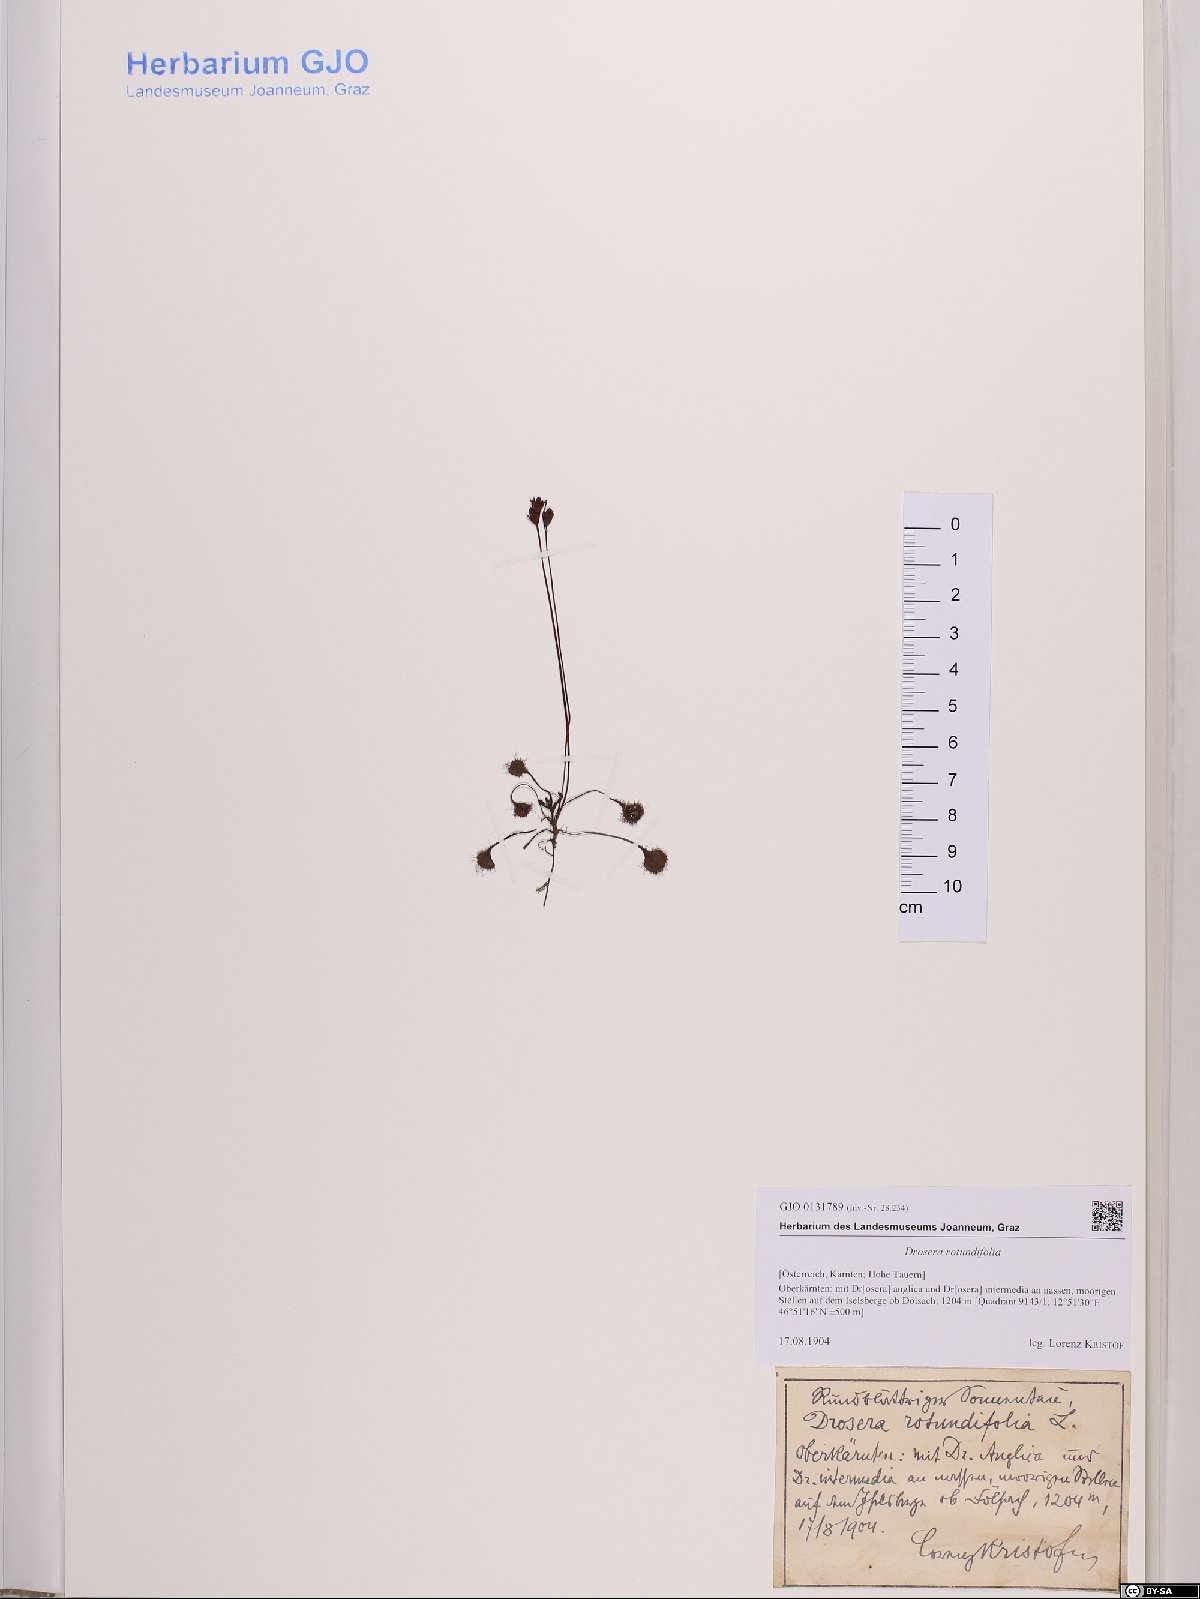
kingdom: Plantae
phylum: Tracheophyta
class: Magnoliopsida
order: Caryophyllales
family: Droseraceae
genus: Drosera
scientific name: Drosera rotundifolia
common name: Round-leaved sundew
